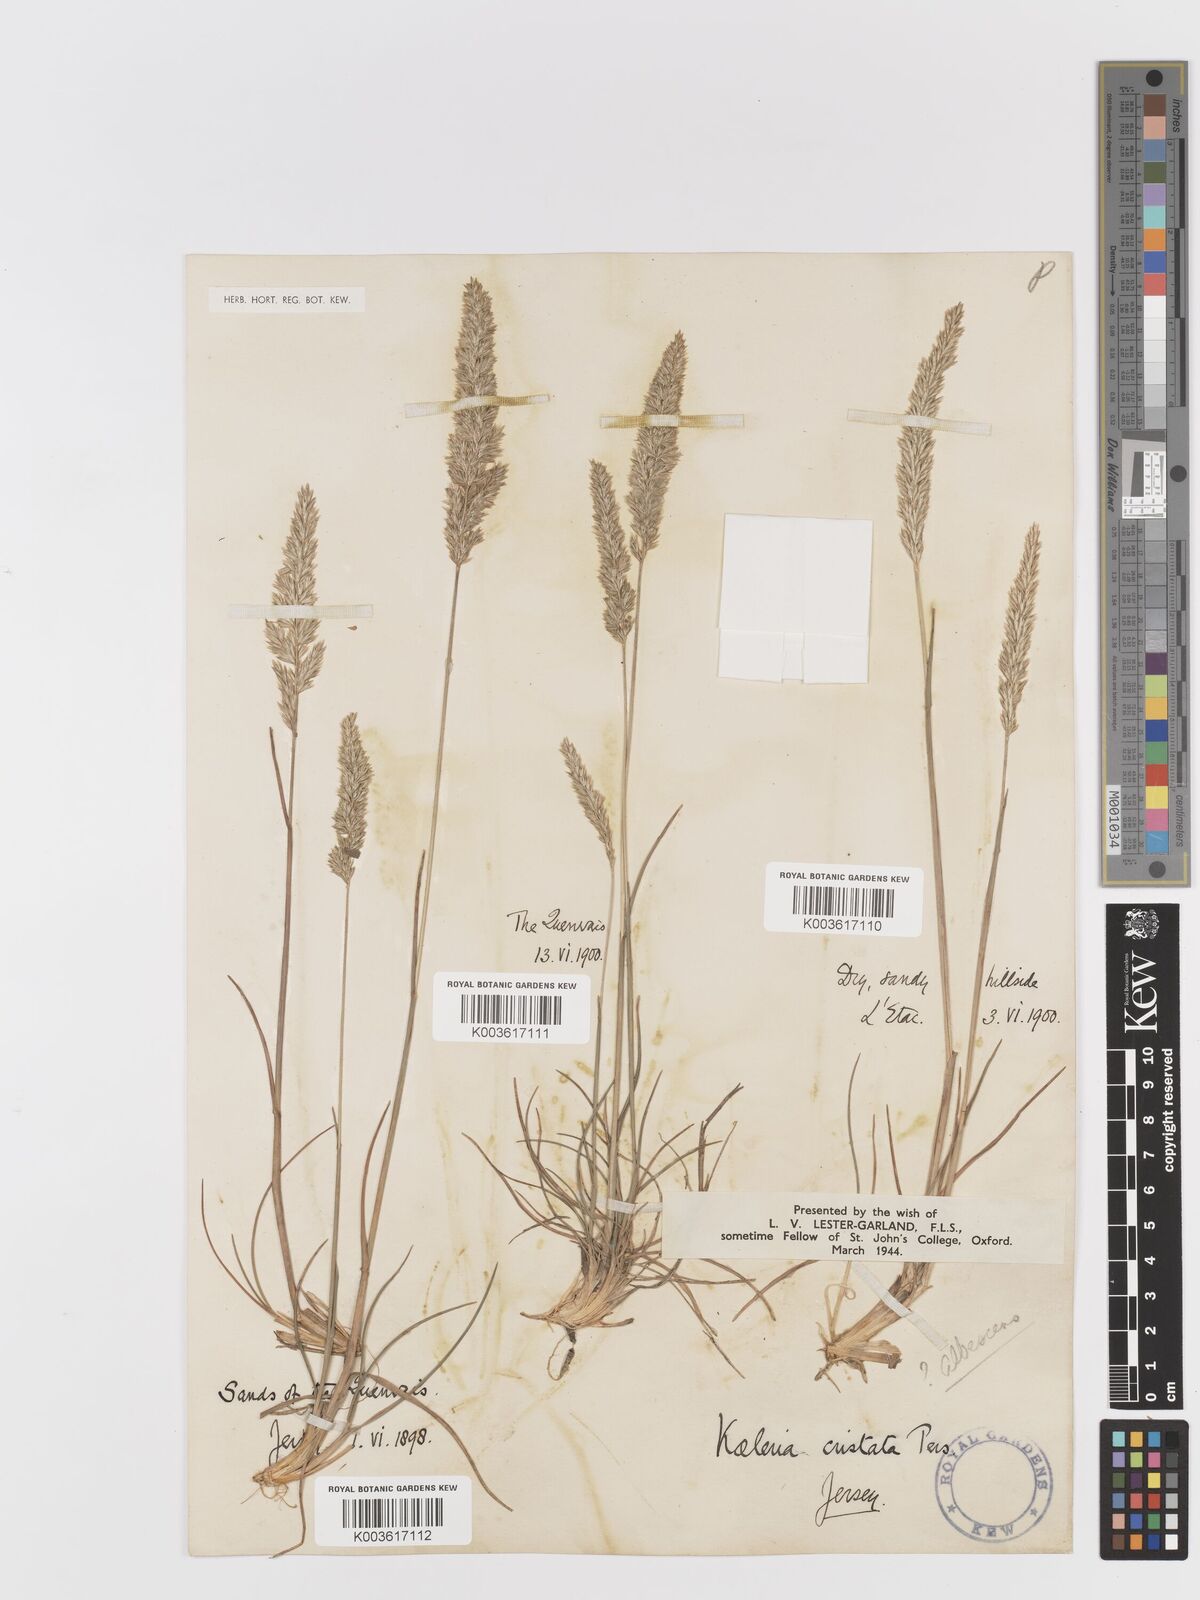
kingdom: Plantae
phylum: Tracheophyta
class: Liliopsida
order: Poales
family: Poaceae
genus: Koeleria
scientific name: Koeleria macrantha
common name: Crested hair-grass
